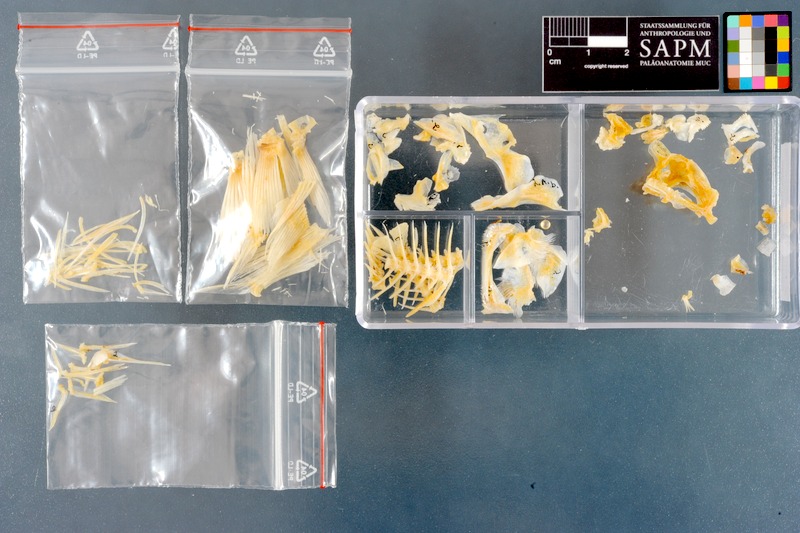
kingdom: Animalia
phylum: Chordata
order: Perciformes
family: Pomacentridae
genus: Amphiprion
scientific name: Amphiprion bicinctus
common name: Two-banded anemonefish
